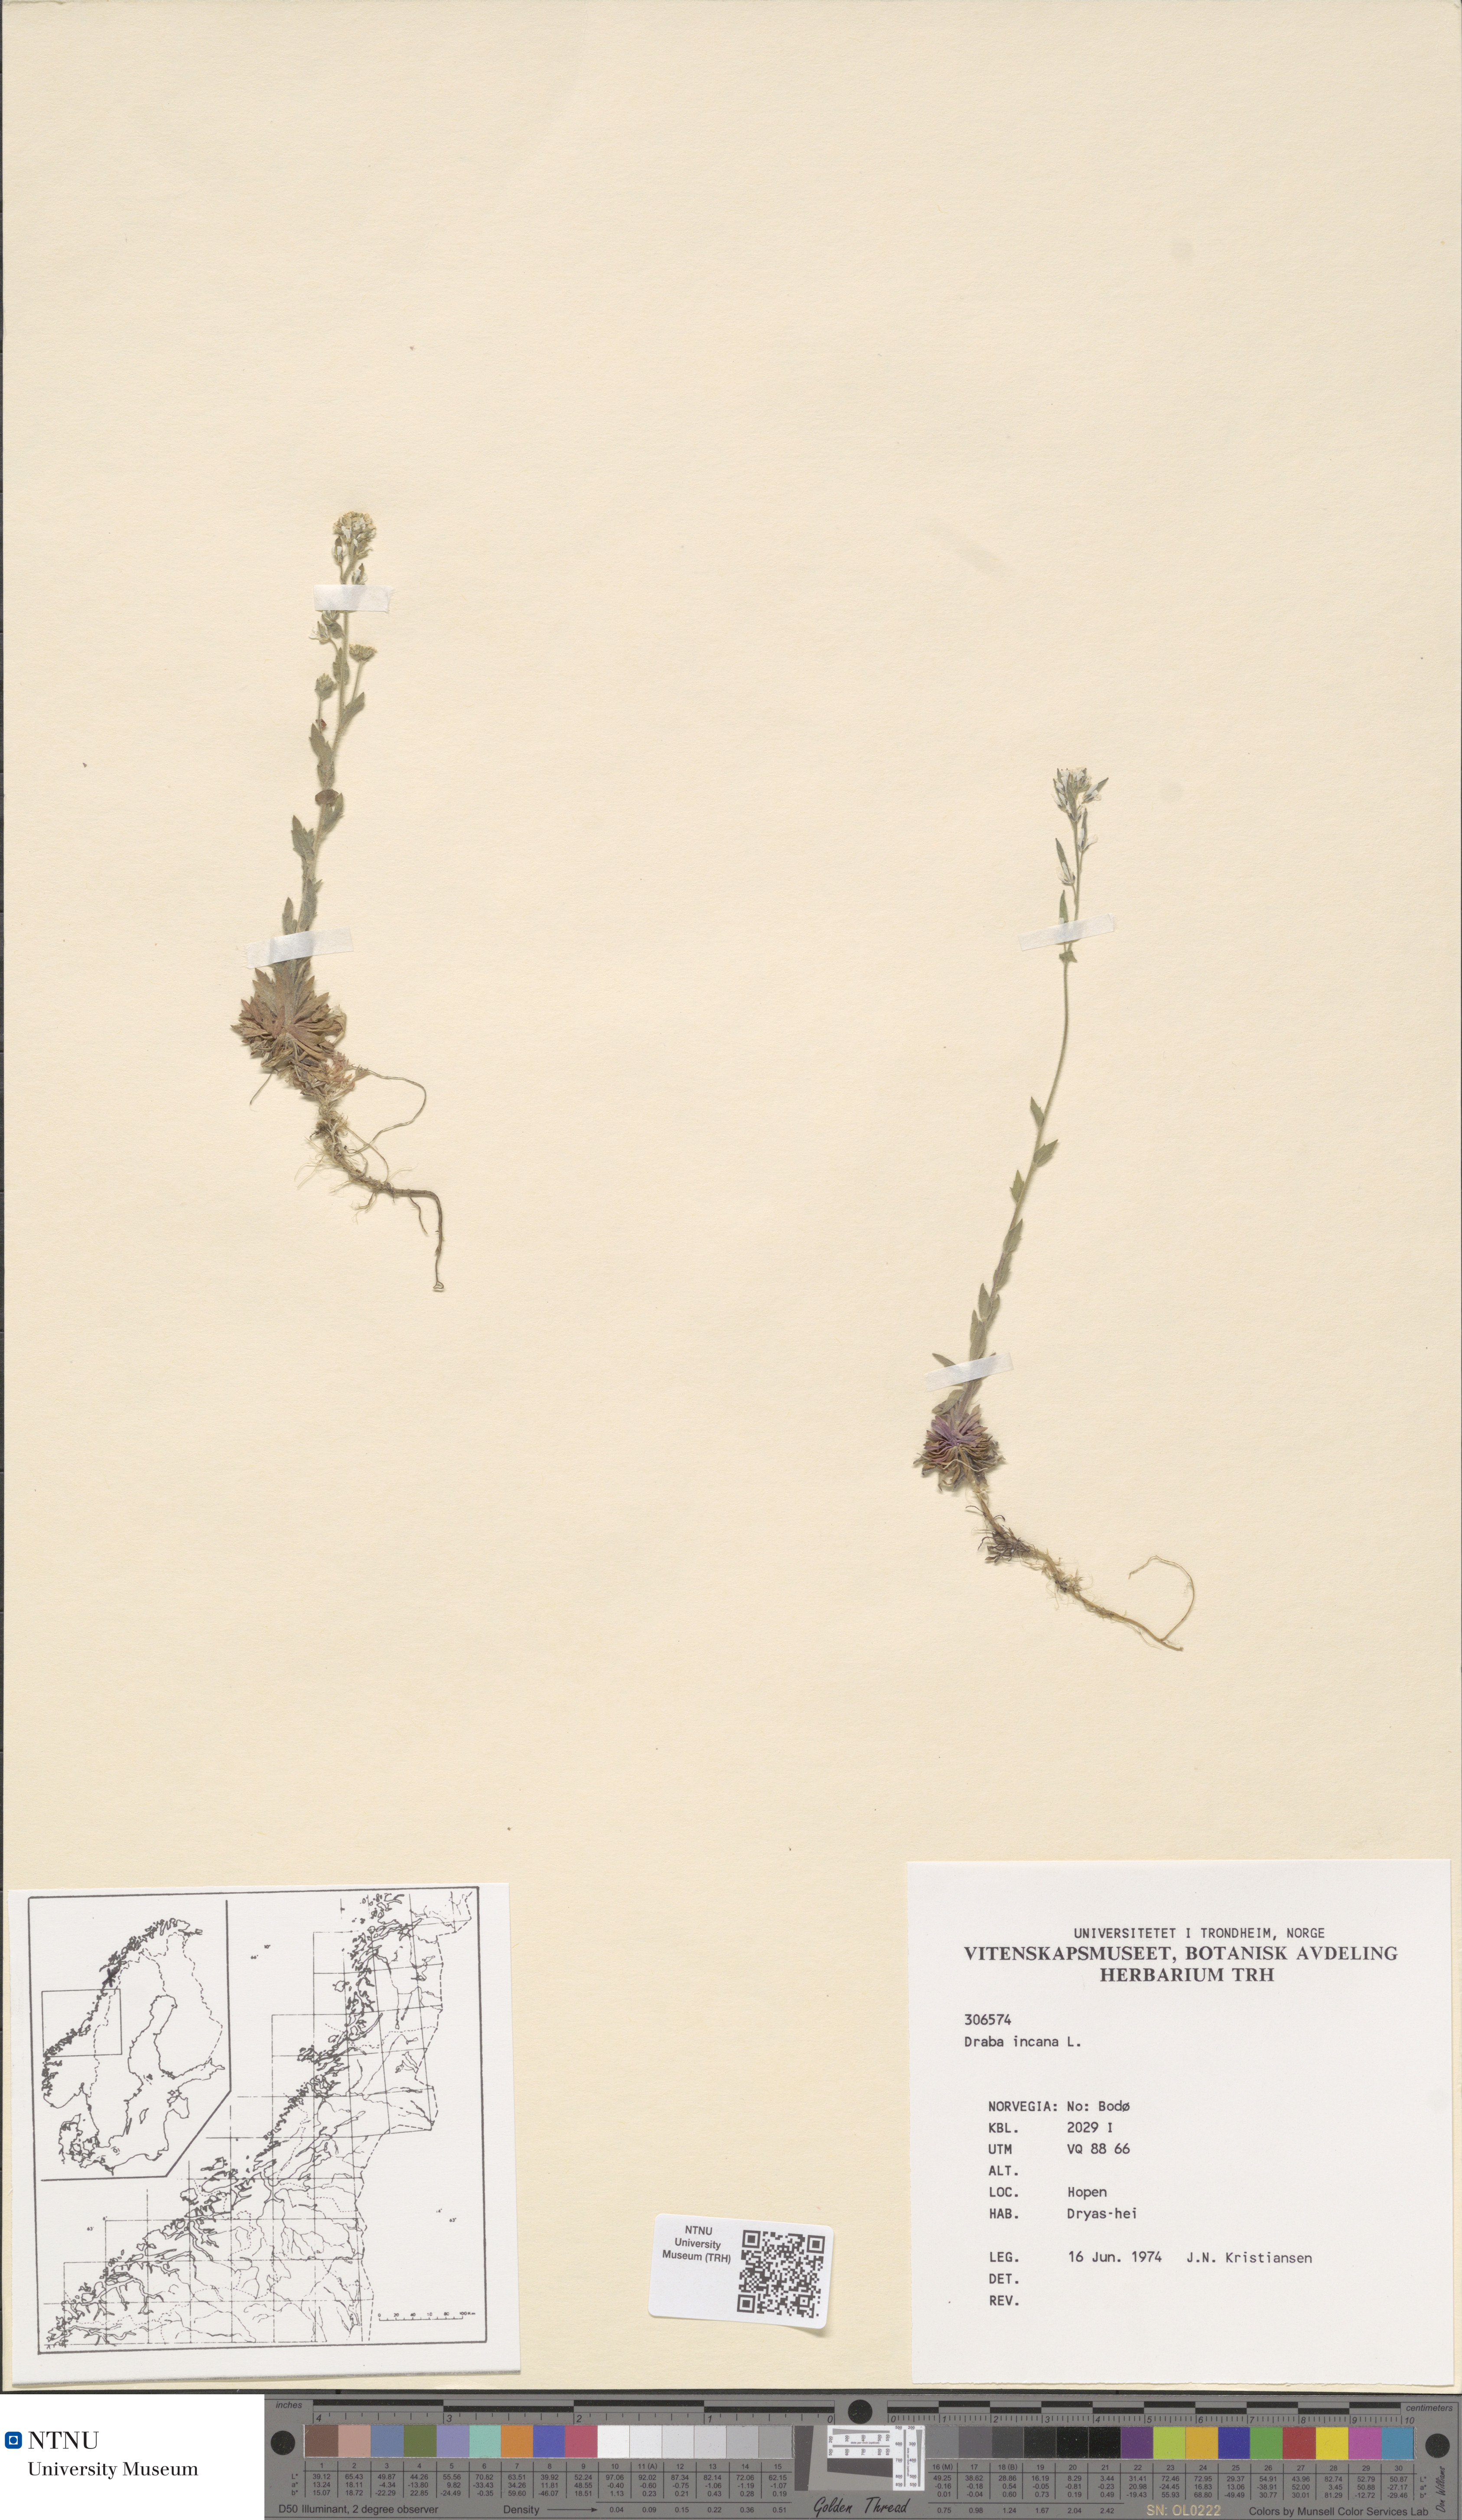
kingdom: Plantae
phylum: Tracheophyta
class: Magnoliopsida
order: Brassicales
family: Brassicaceae
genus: Draba
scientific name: Draba incana
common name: Hoary whitlow-grass
